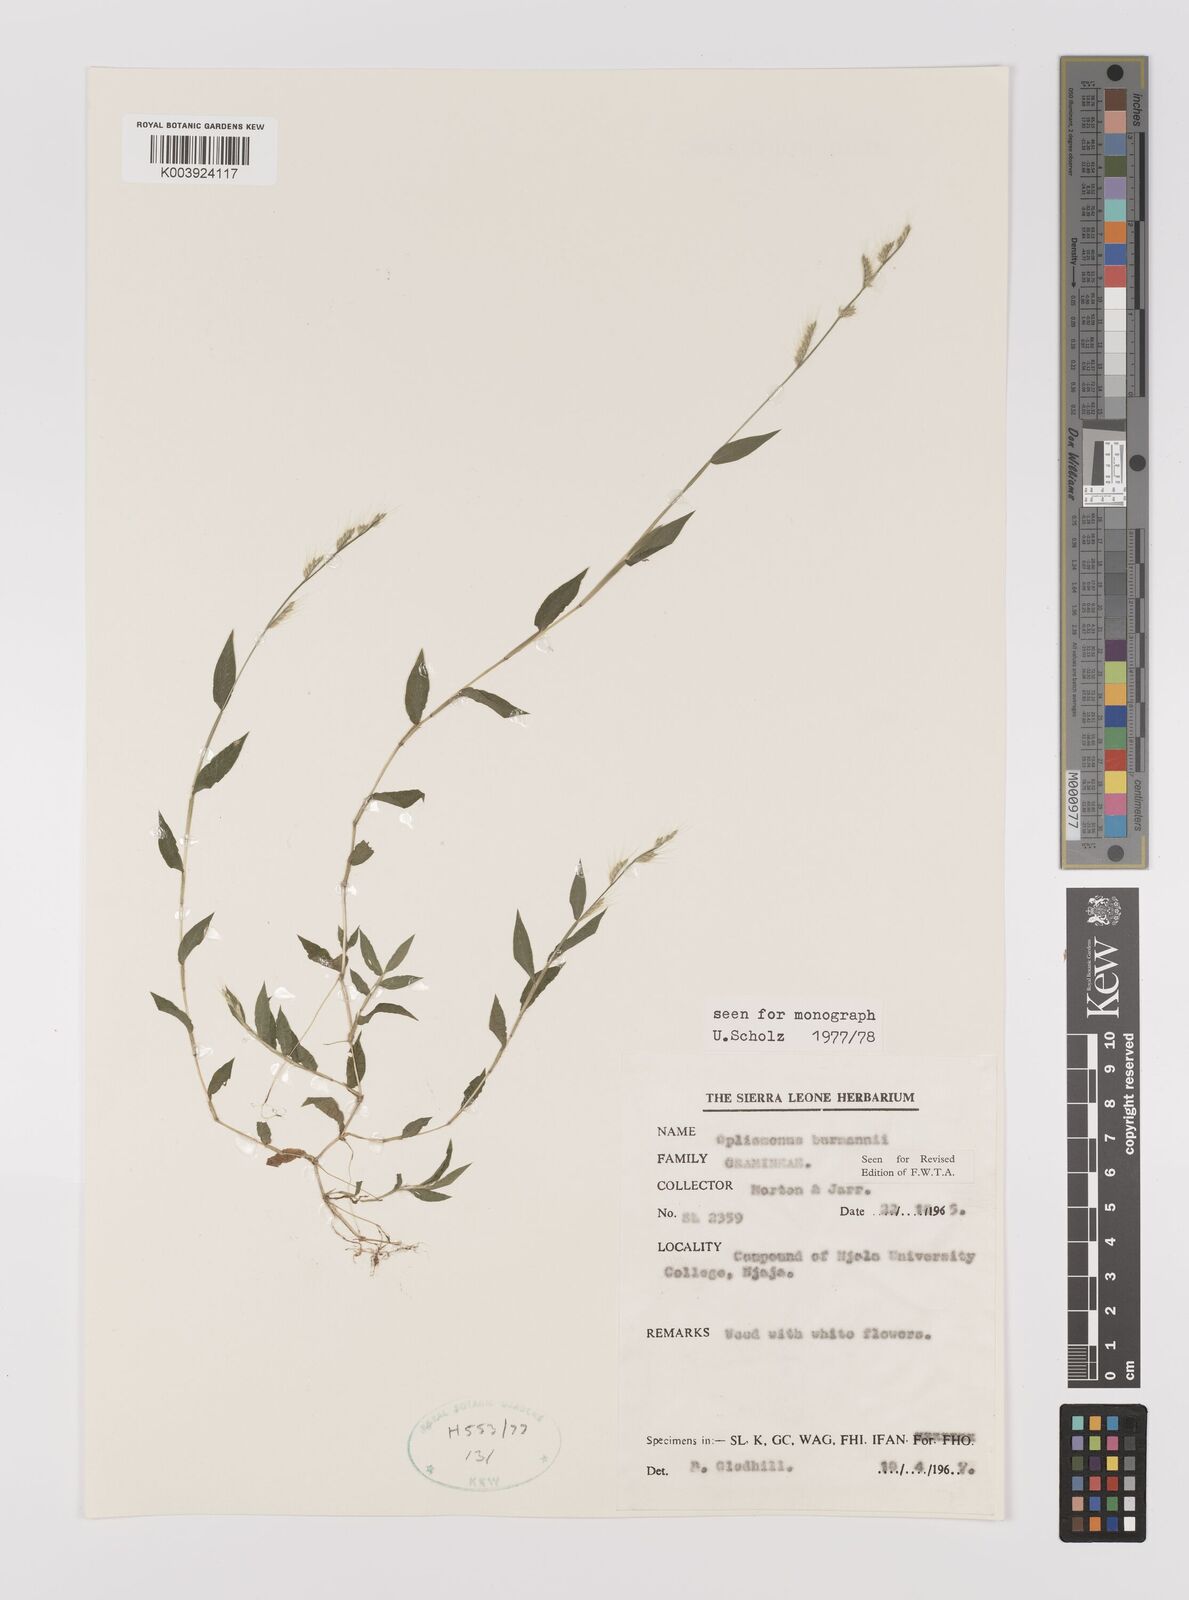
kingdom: Plantae
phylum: Tracheophyta
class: Liliopsida
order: Poales
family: Poaceae
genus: Oplismenus
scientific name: Oplismenus burmanni
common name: Burmann's basketgrass
